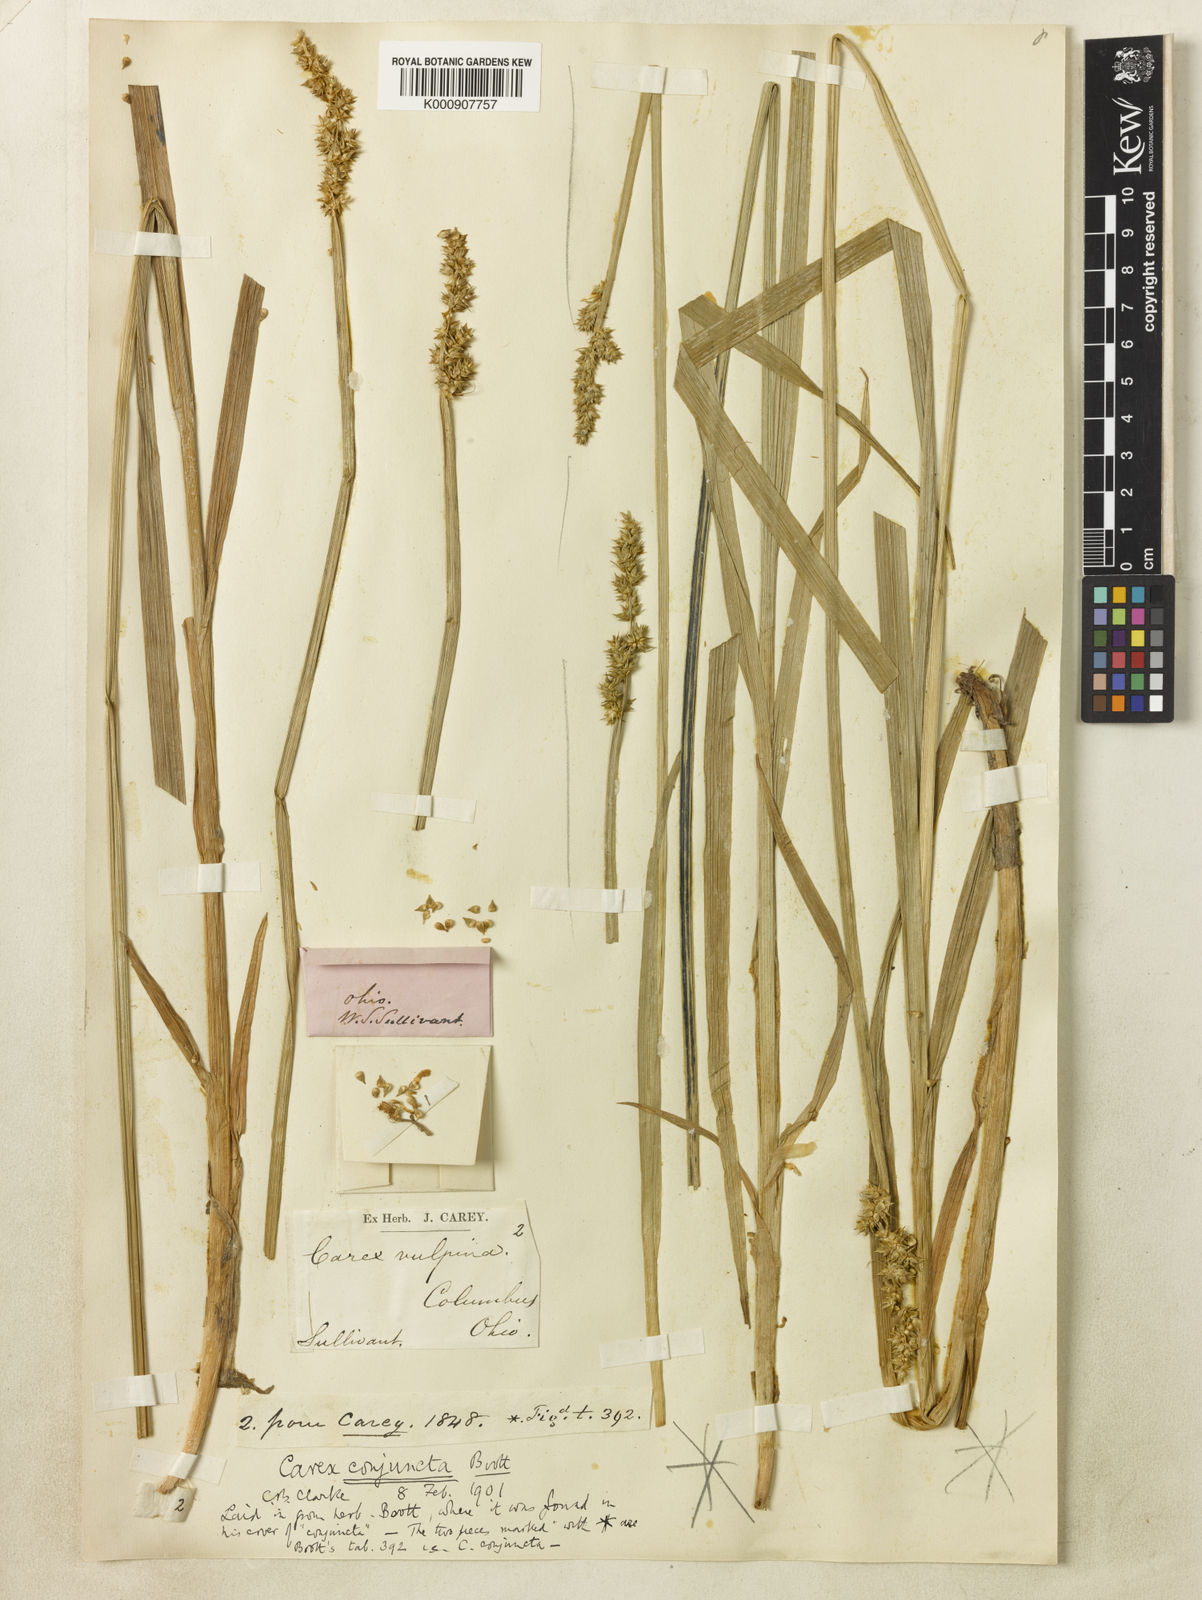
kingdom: Plantae
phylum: Tracheophyta
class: Liliopsida
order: Poales
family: Cyperaceae
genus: Carex
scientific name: Carex conjuncta
